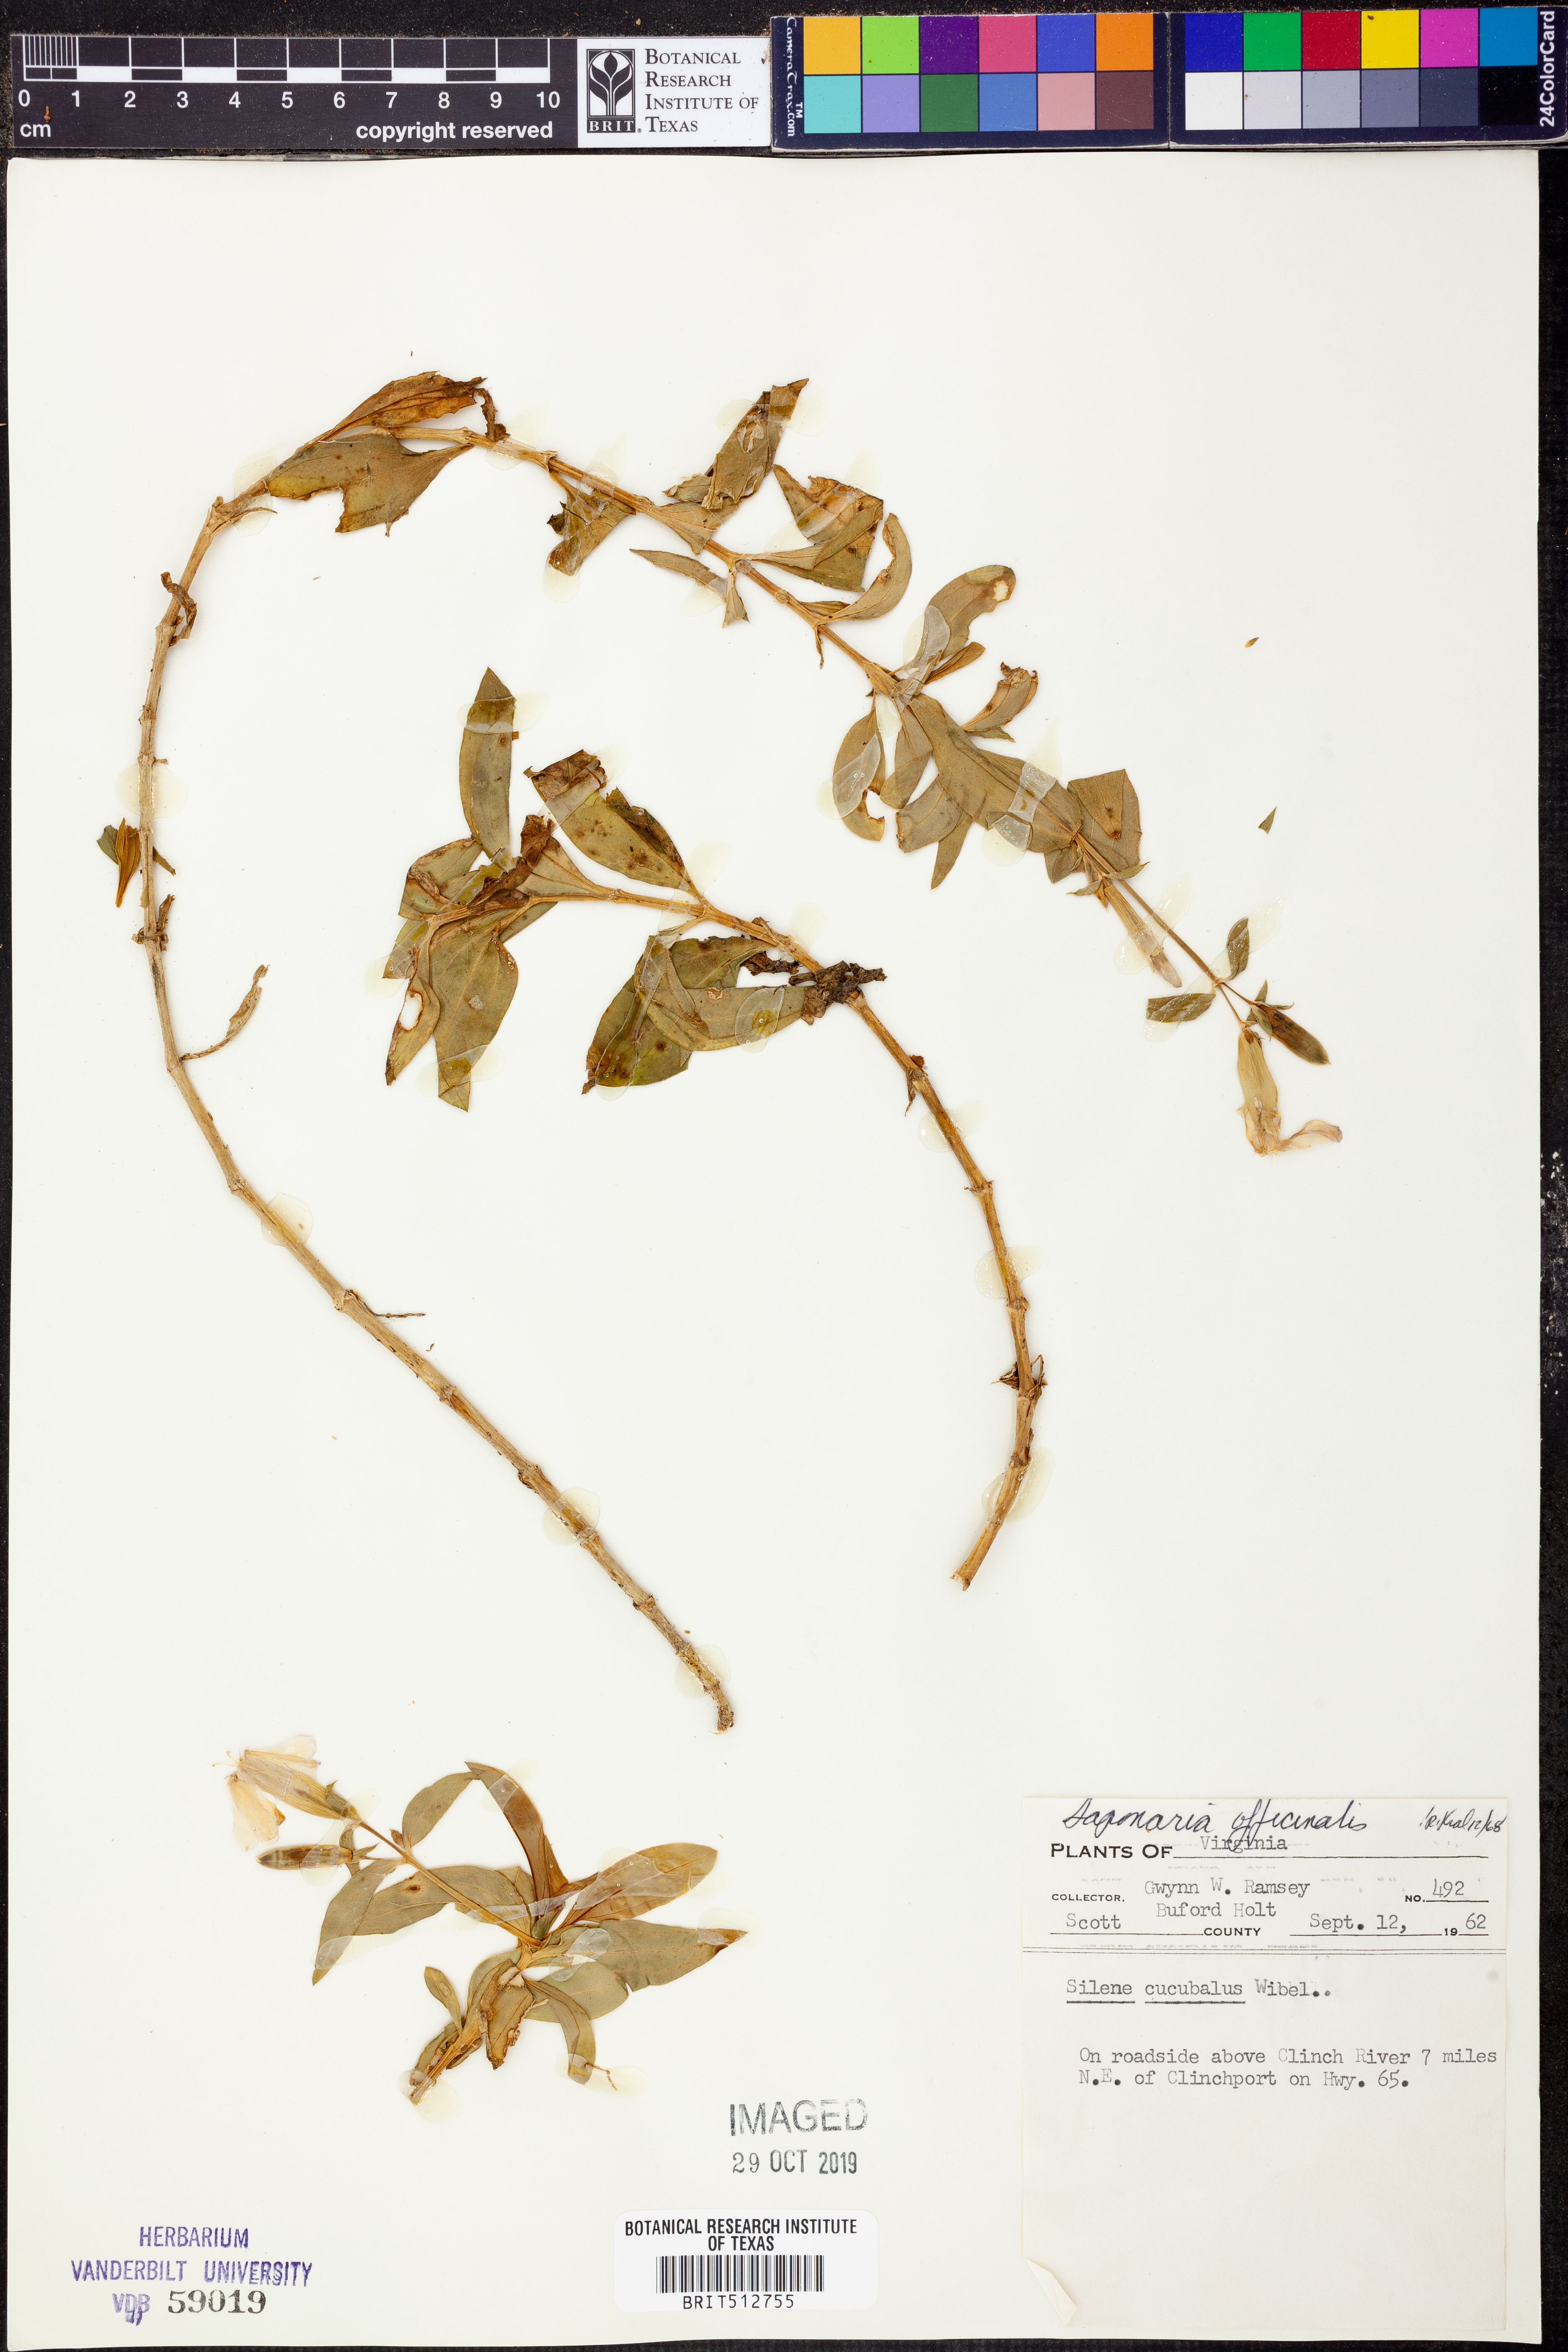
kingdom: Plantae
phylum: Tracheophyta
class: Magnoliopsida
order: Caryophyllales
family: Caryophyllaceae
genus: Saponaria
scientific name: Saponaria officinalis
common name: Soapwort
